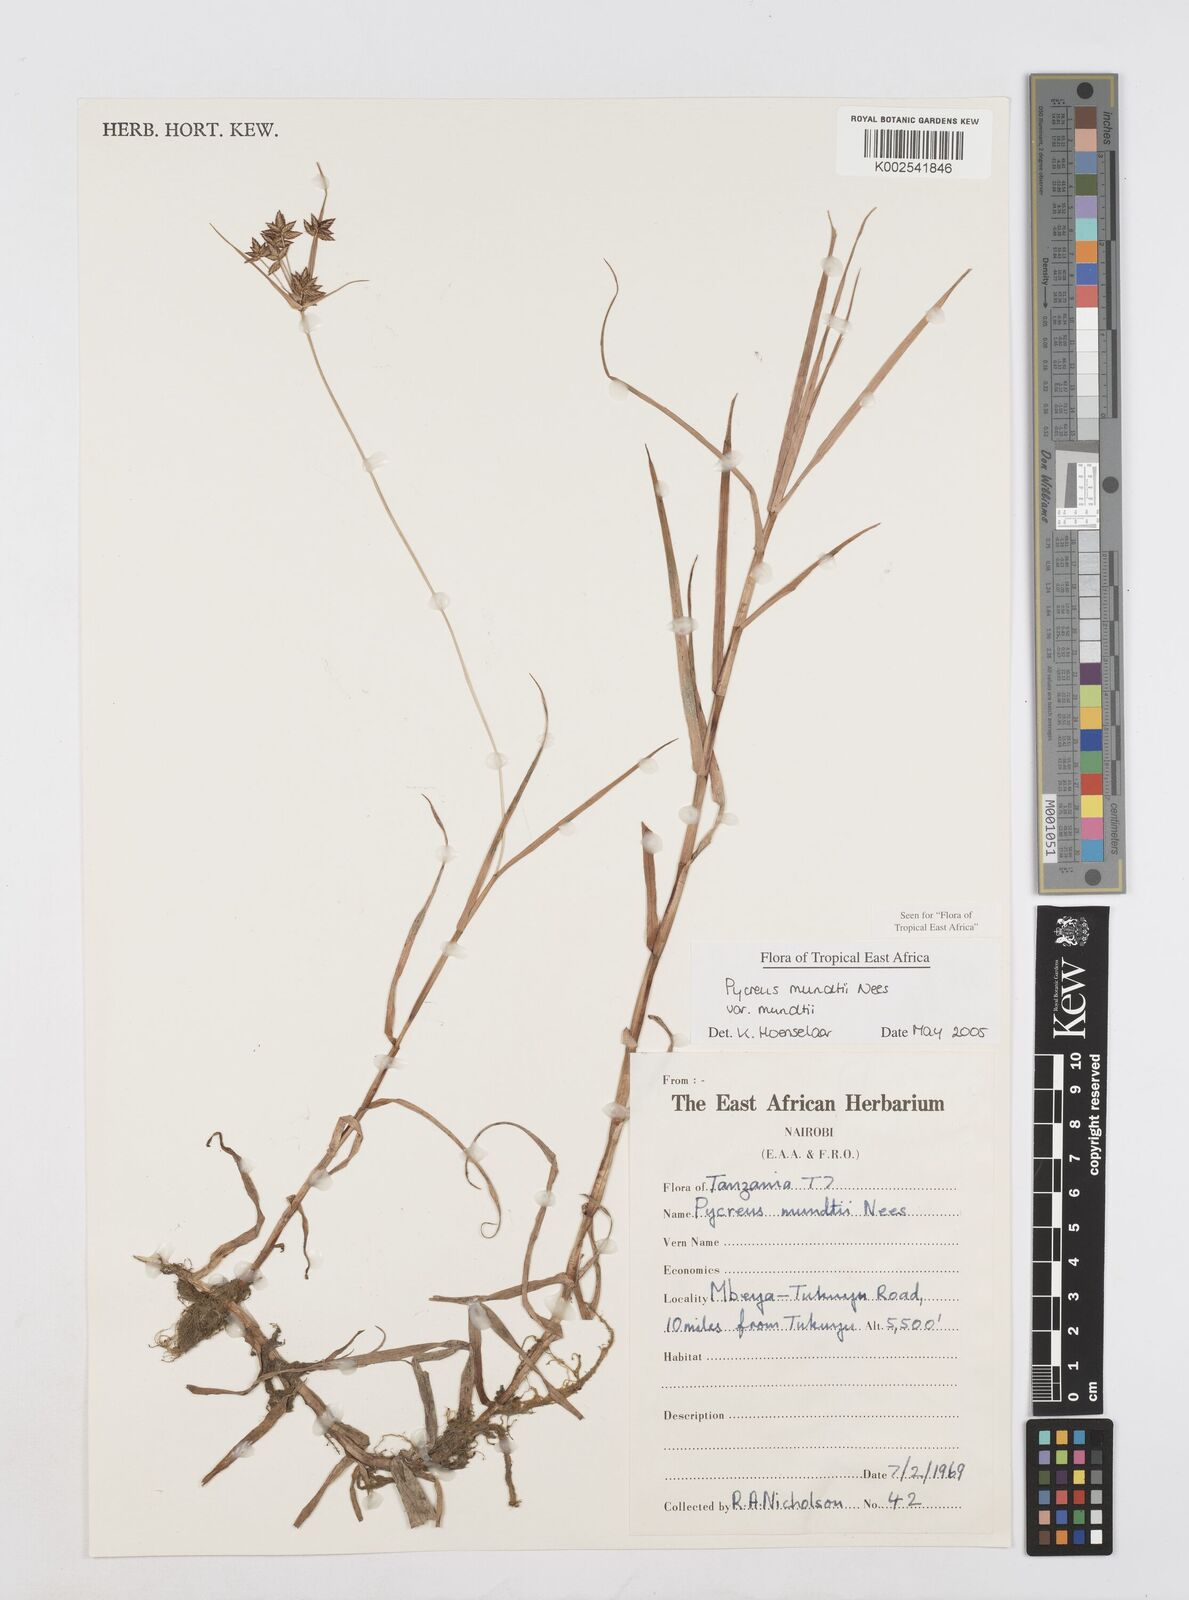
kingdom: Plantae
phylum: Tracheophyta
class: Liliopsida
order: Poales
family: Cyperaceae
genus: Cyperus
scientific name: Cyperus mundii
